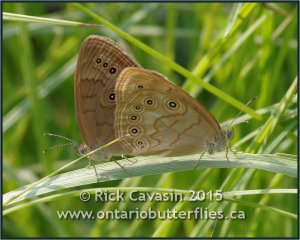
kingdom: Animalia
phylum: Arthropoda
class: Insecta
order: Lepidoptera
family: Nymphalidae
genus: Lethe
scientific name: Lethe eurydice
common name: Eyed Brown
